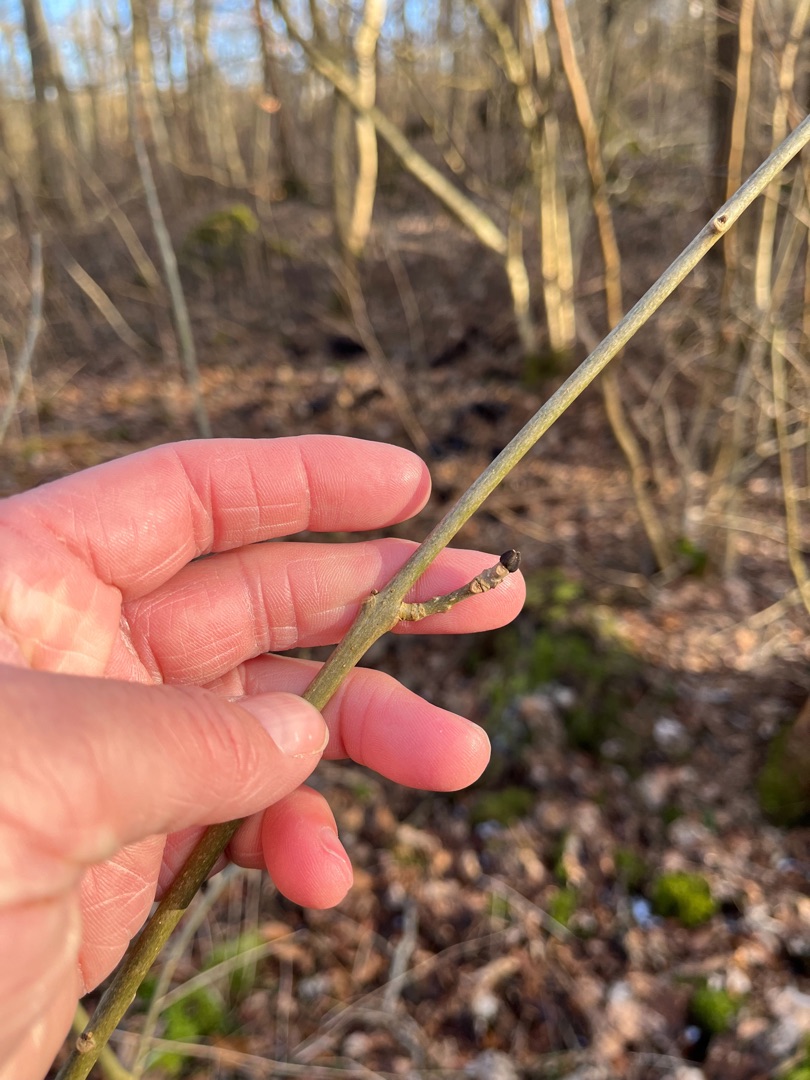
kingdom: Plantae
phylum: Tracheophyta
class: Magnoliopsida
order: Lamiales
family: Oleaceae
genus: Fraxinus
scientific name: Fraxinus excelsior
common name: Ask
